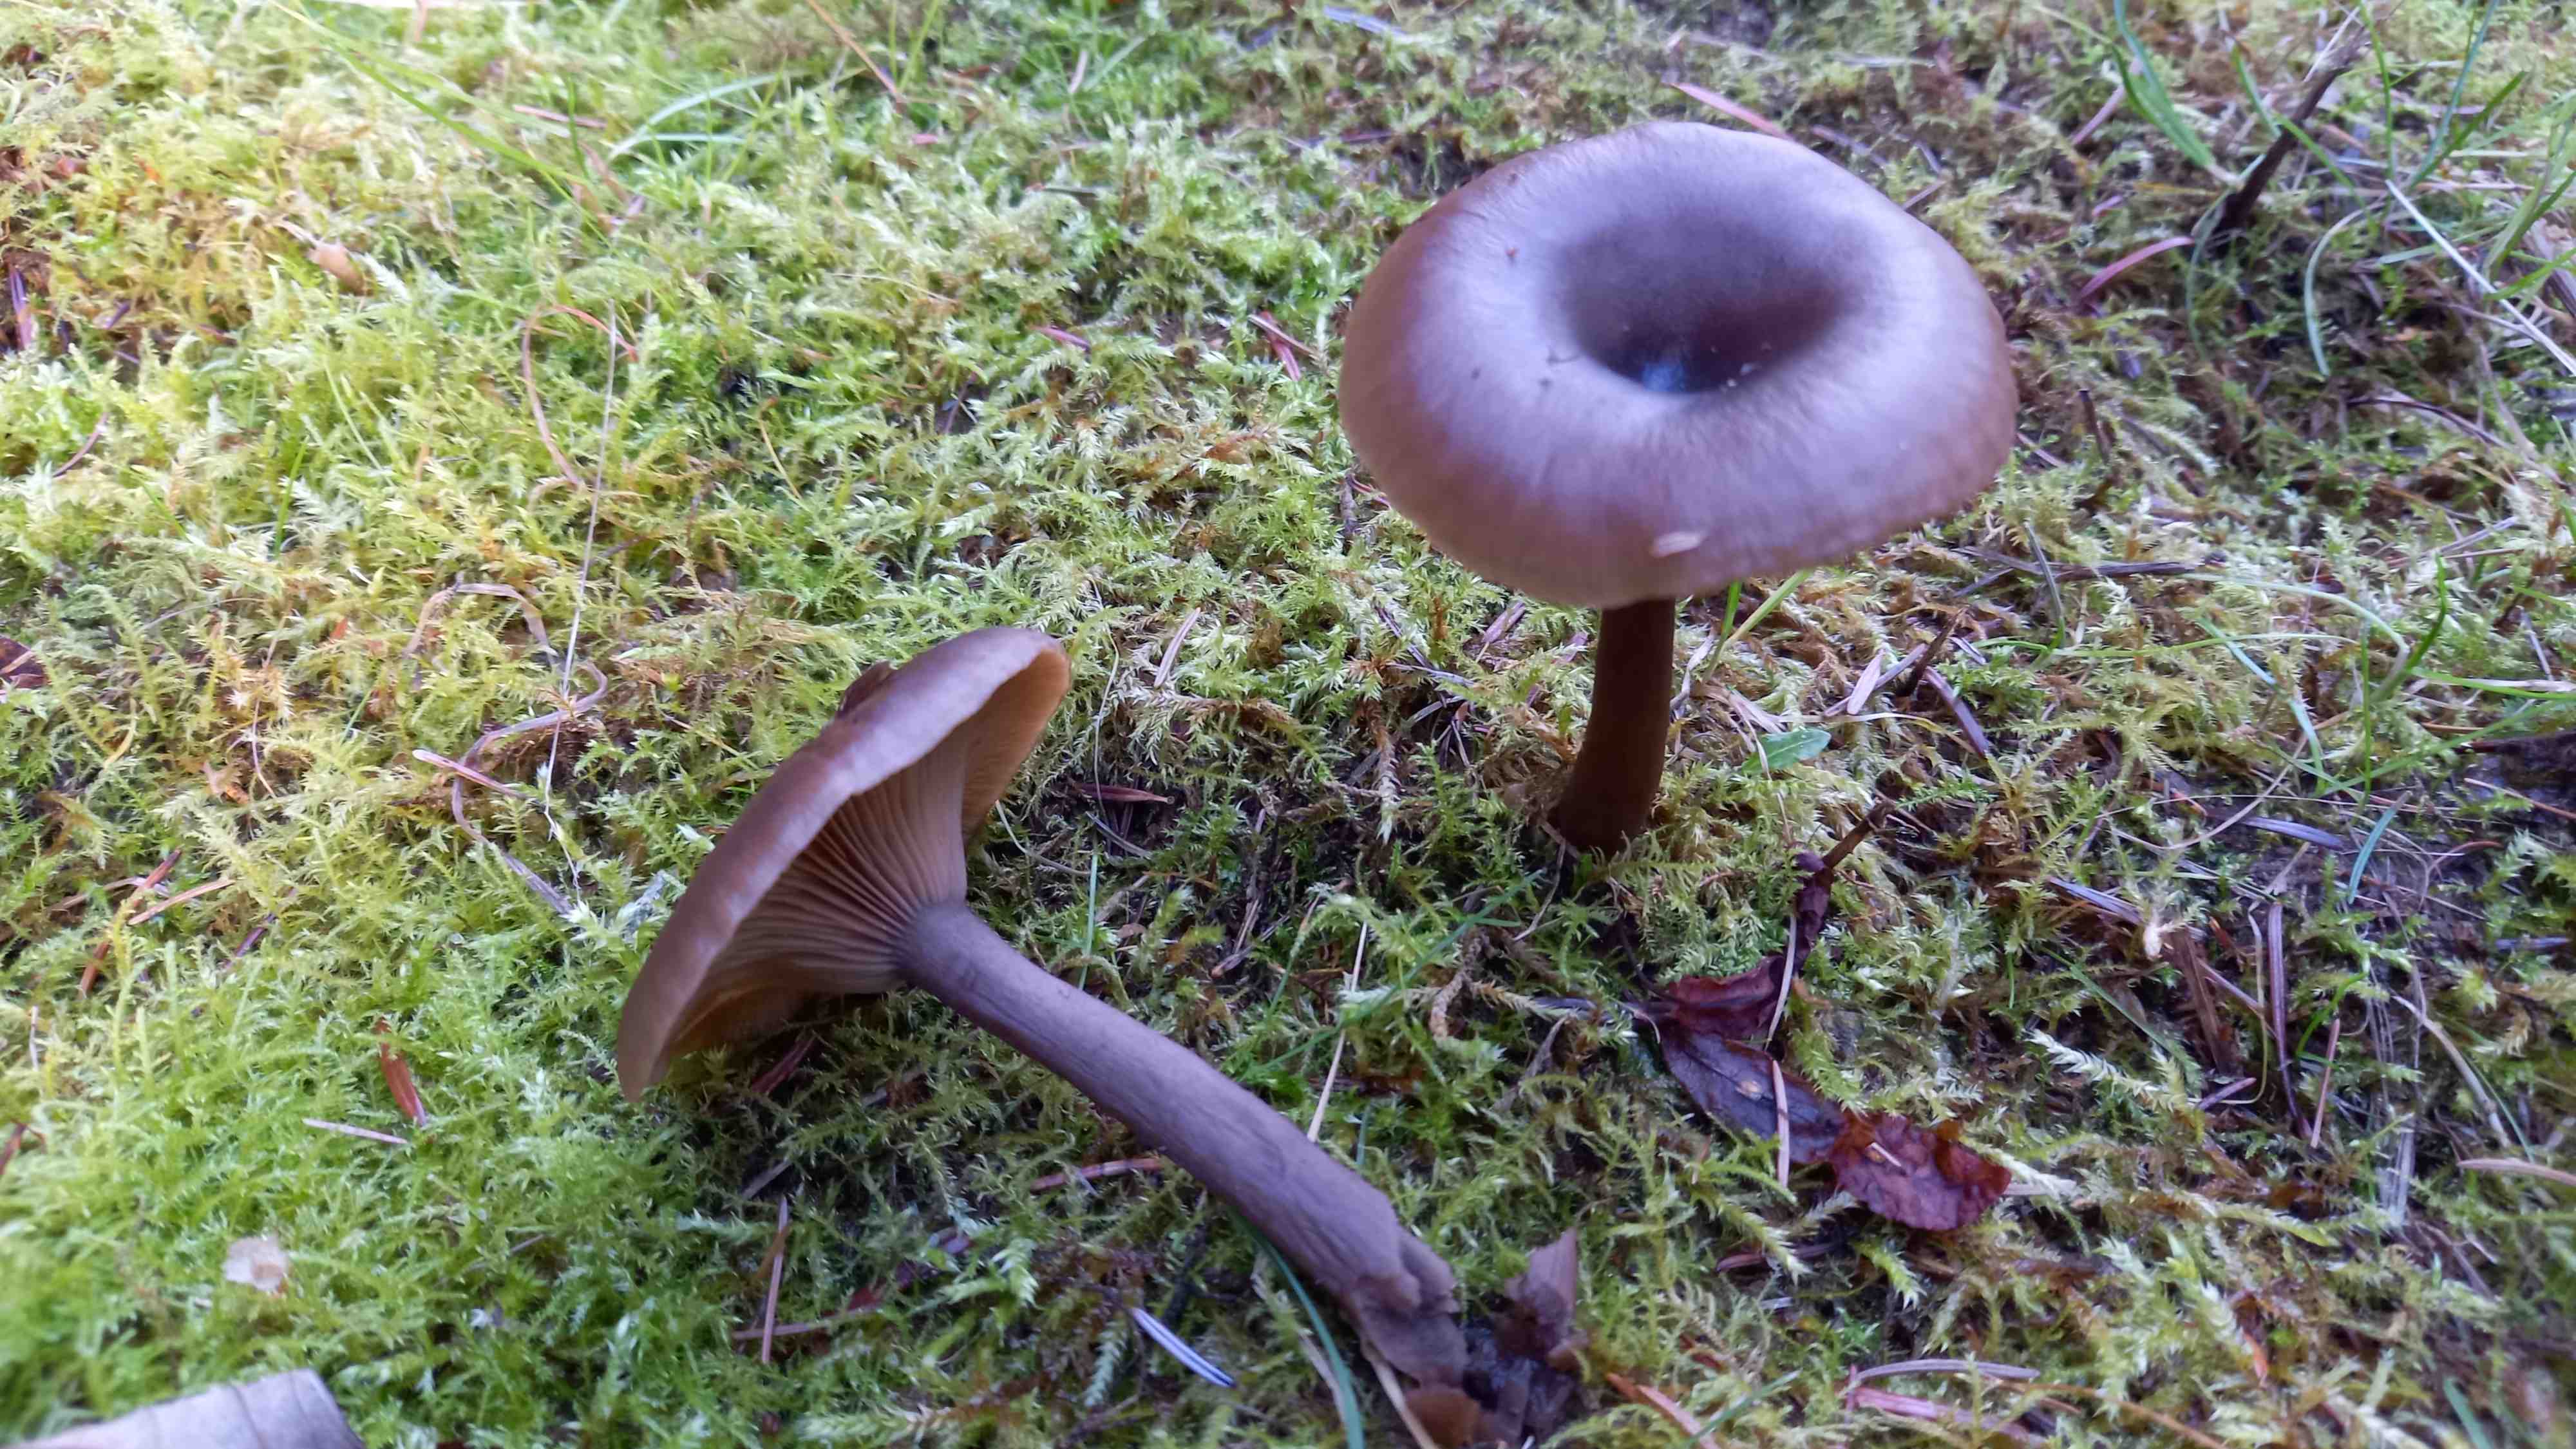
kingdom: Fungi
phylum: Basidiomycota
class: Agaricomycetes
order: Agaricales
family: Pseudoclitocybaceae
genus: Pseudoclitocybe
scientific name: Pseudoclitocybe cyathiformis
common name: almindelig bægertragthat
